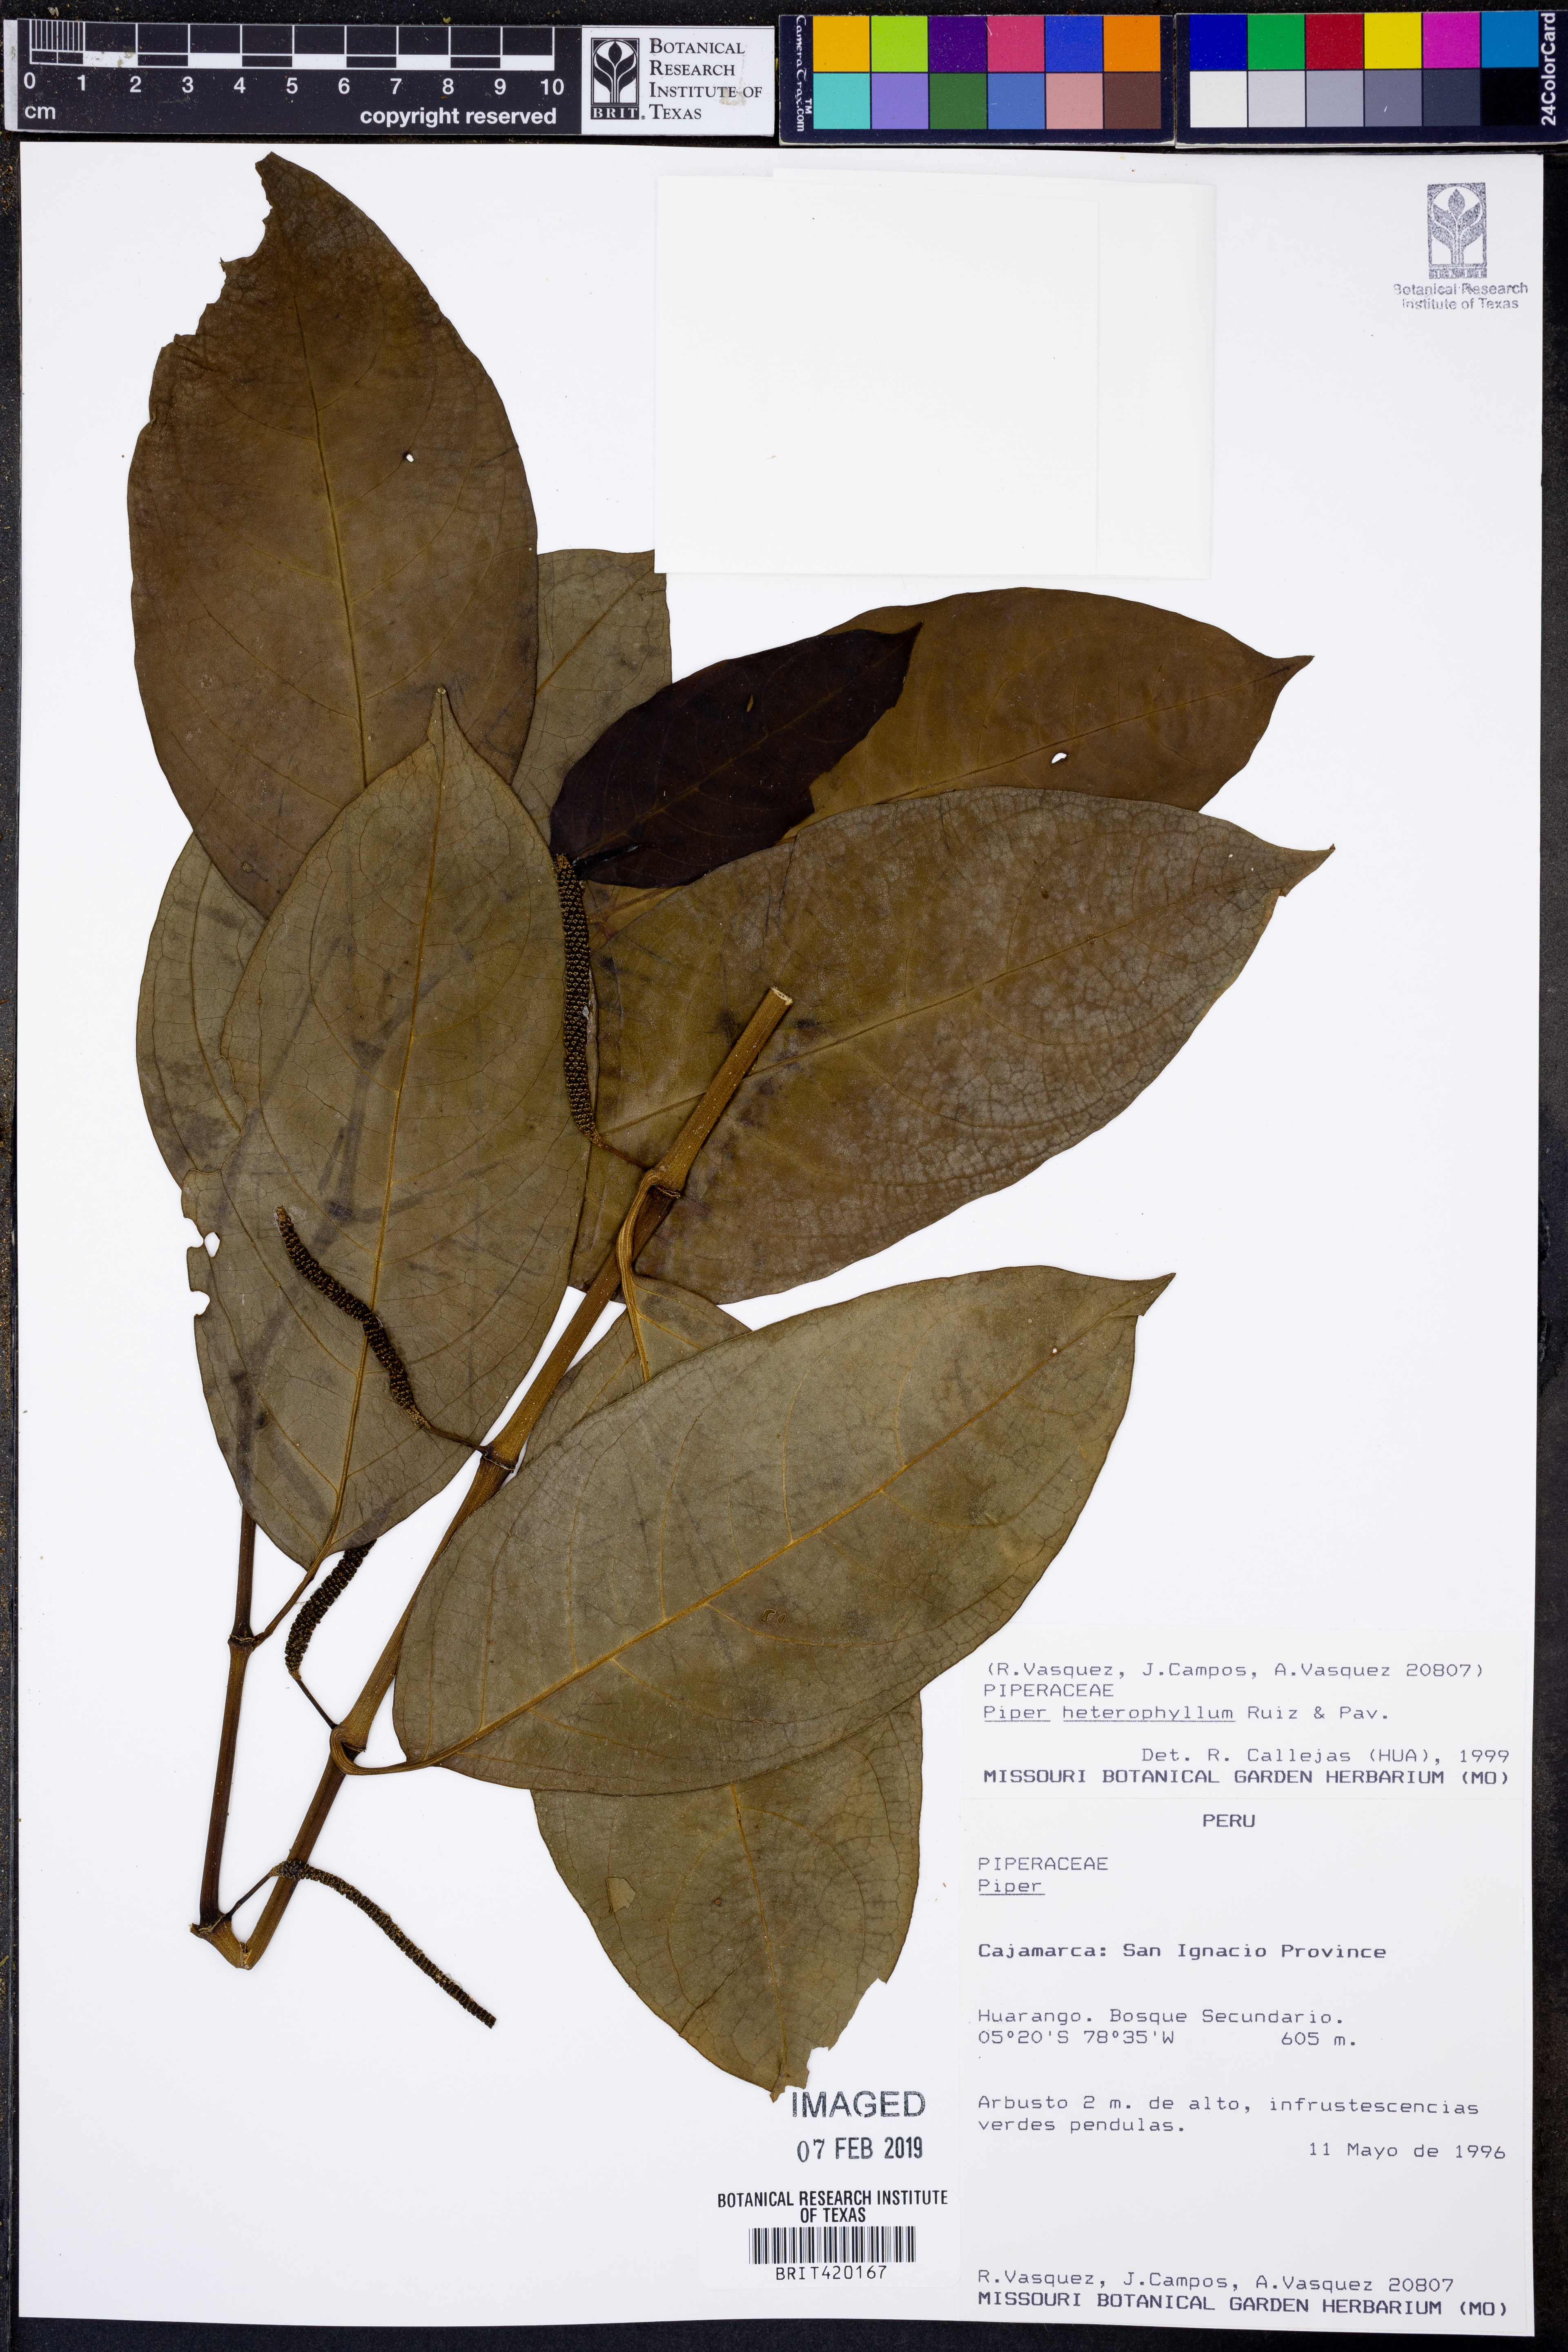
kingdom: Plantae
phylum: Tracheophyta
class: Magnoliopsida
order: Piperales
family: Piperaceae
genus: Piper
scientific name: Piper heterophyllum
